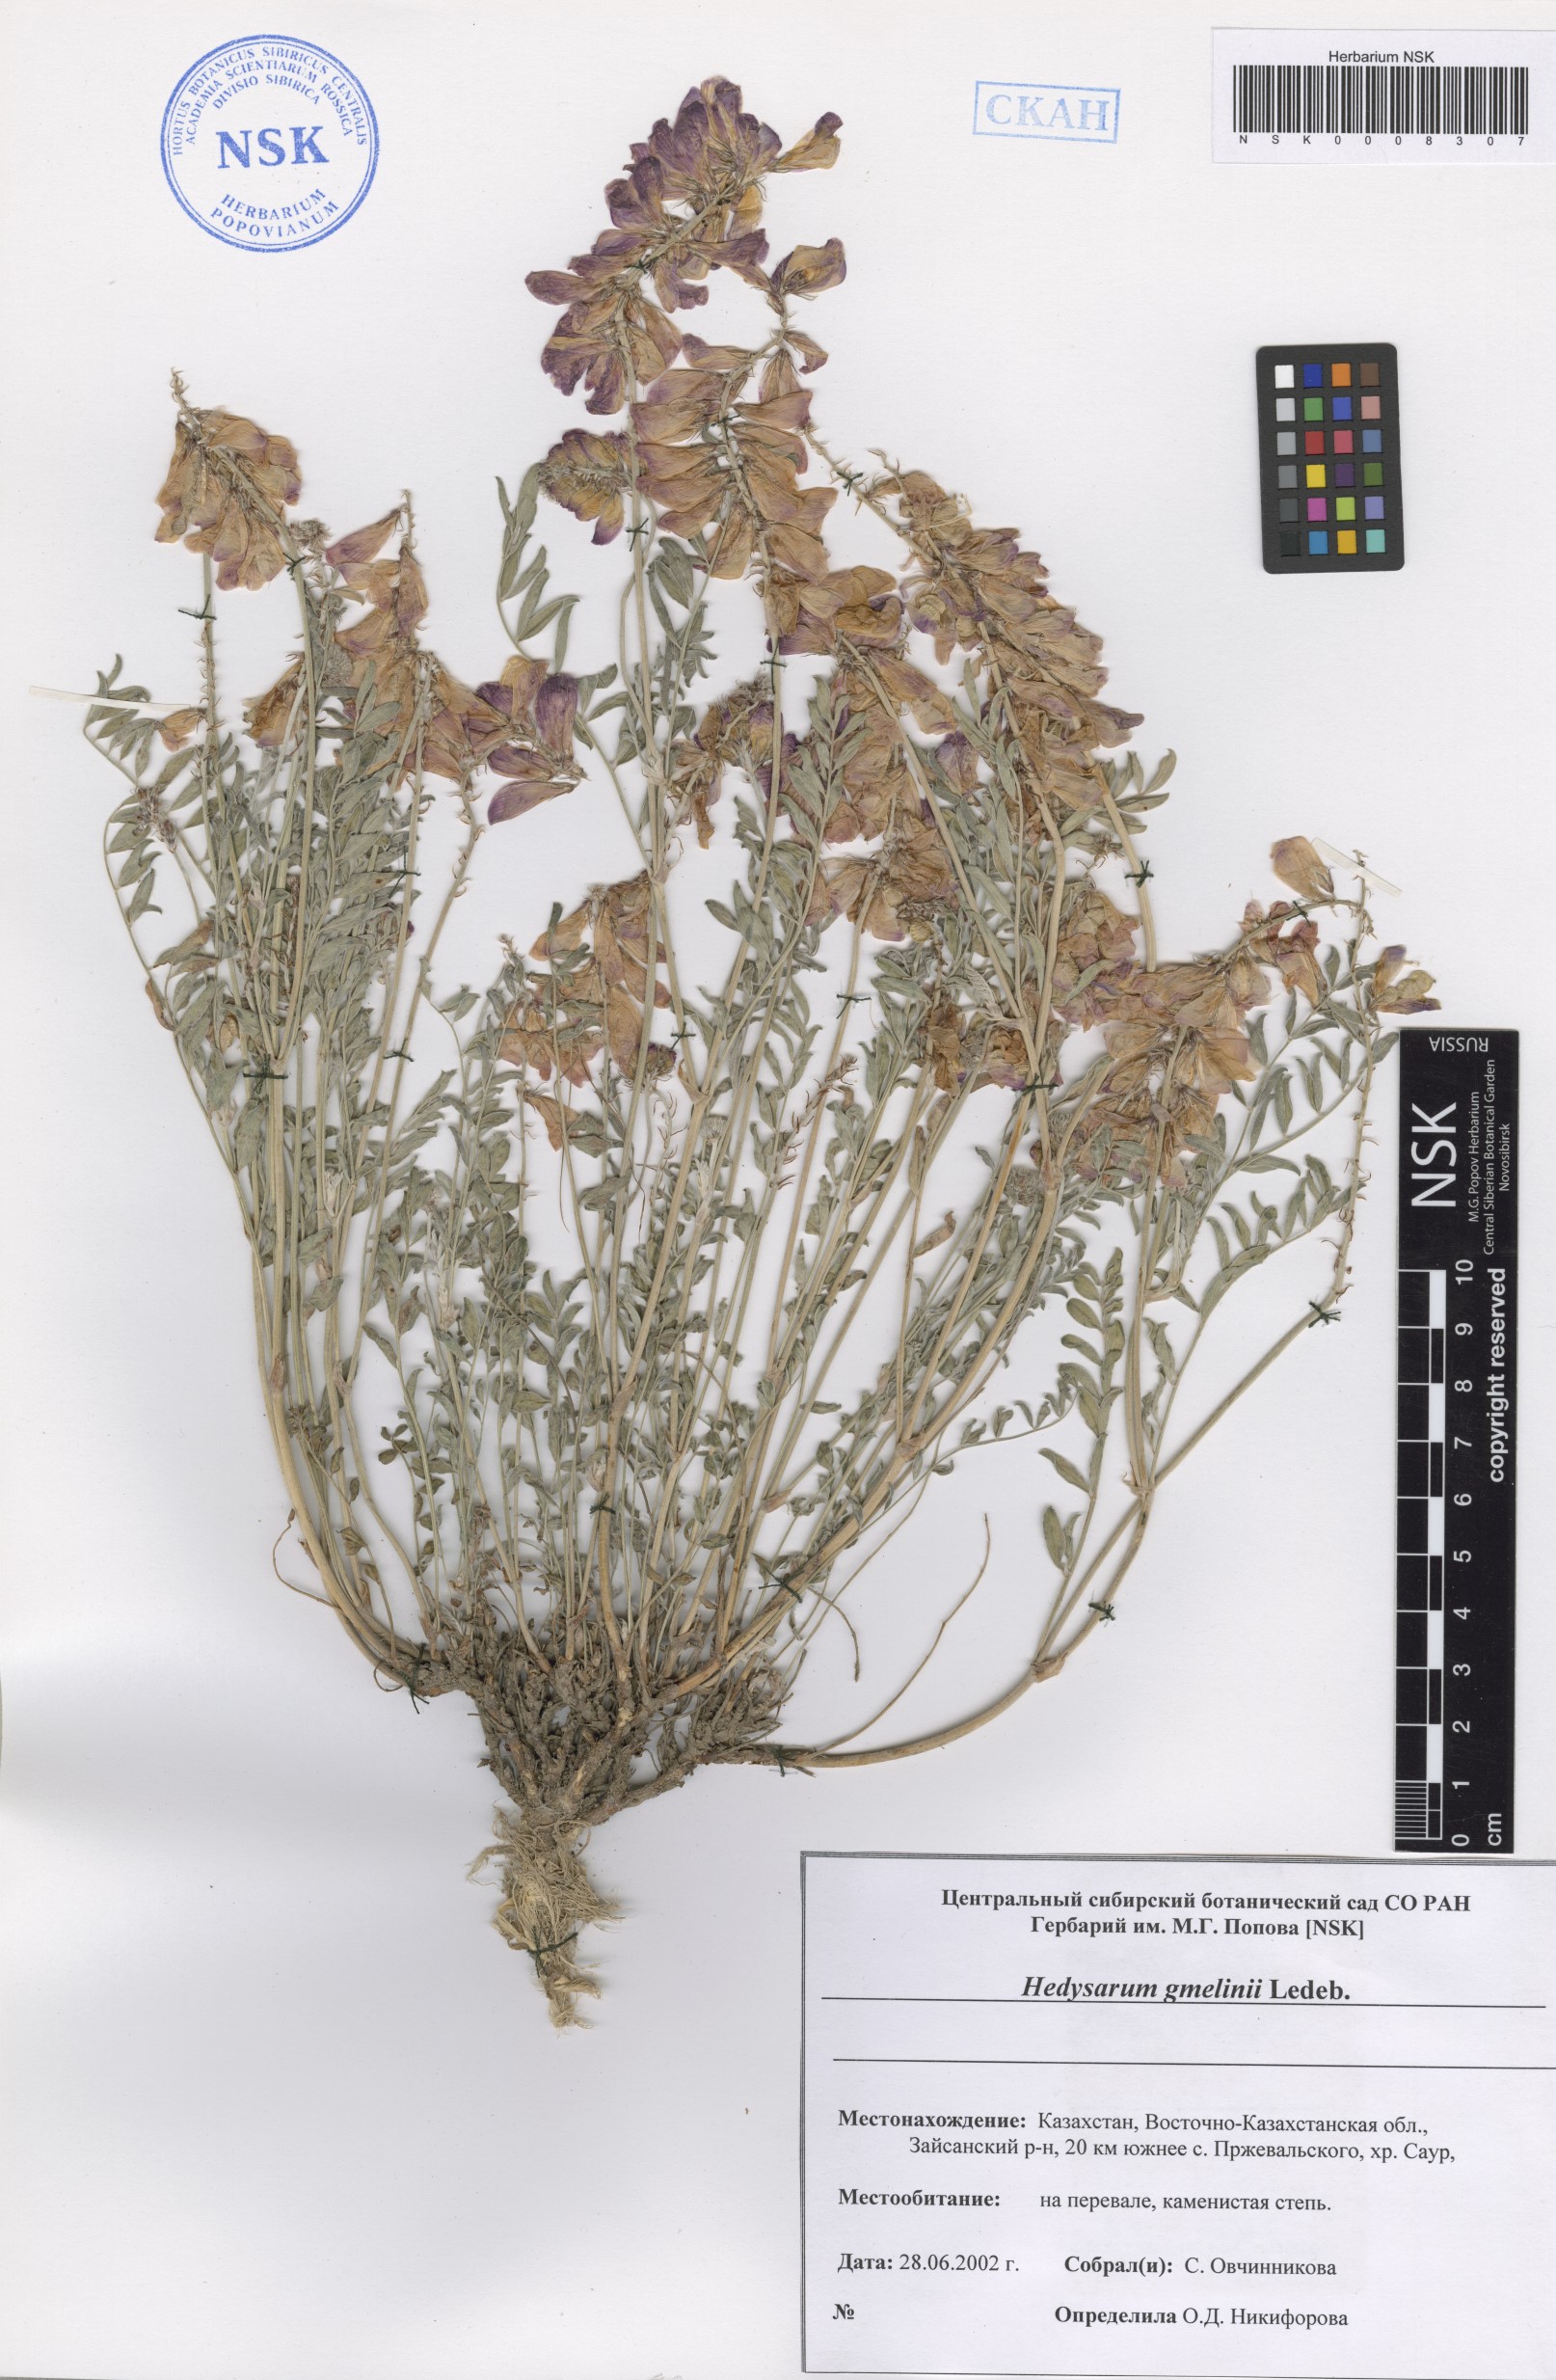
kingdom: Plantae
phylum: Tracheophyta
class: Magnoliopsida
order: Fabales
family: Fabaceae
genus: Hedysarum
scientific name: Hedysarum gmelinii
